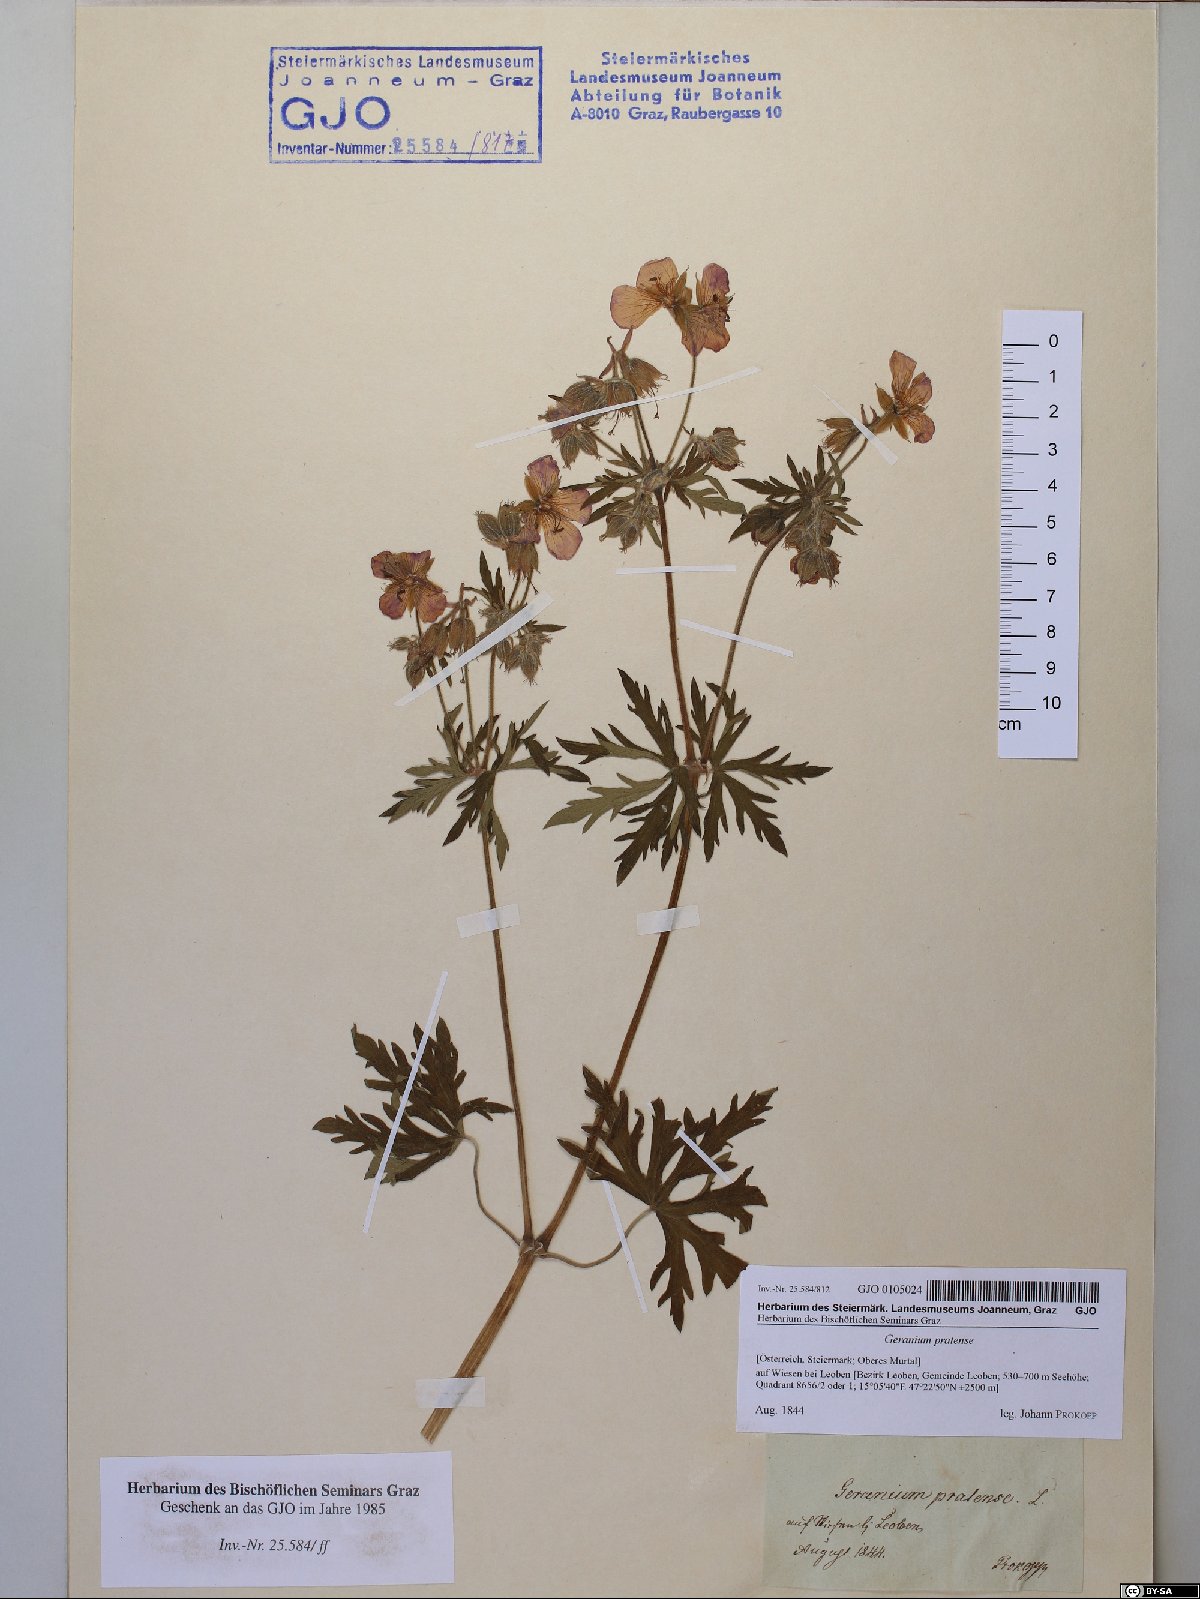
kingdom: Plantae
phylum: Tracheophyta
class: Magnoliopsida
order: Geraniales
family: Geraniaceae
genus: Geranium
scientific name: Geranium pratense
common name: Meadow crane's-bill
